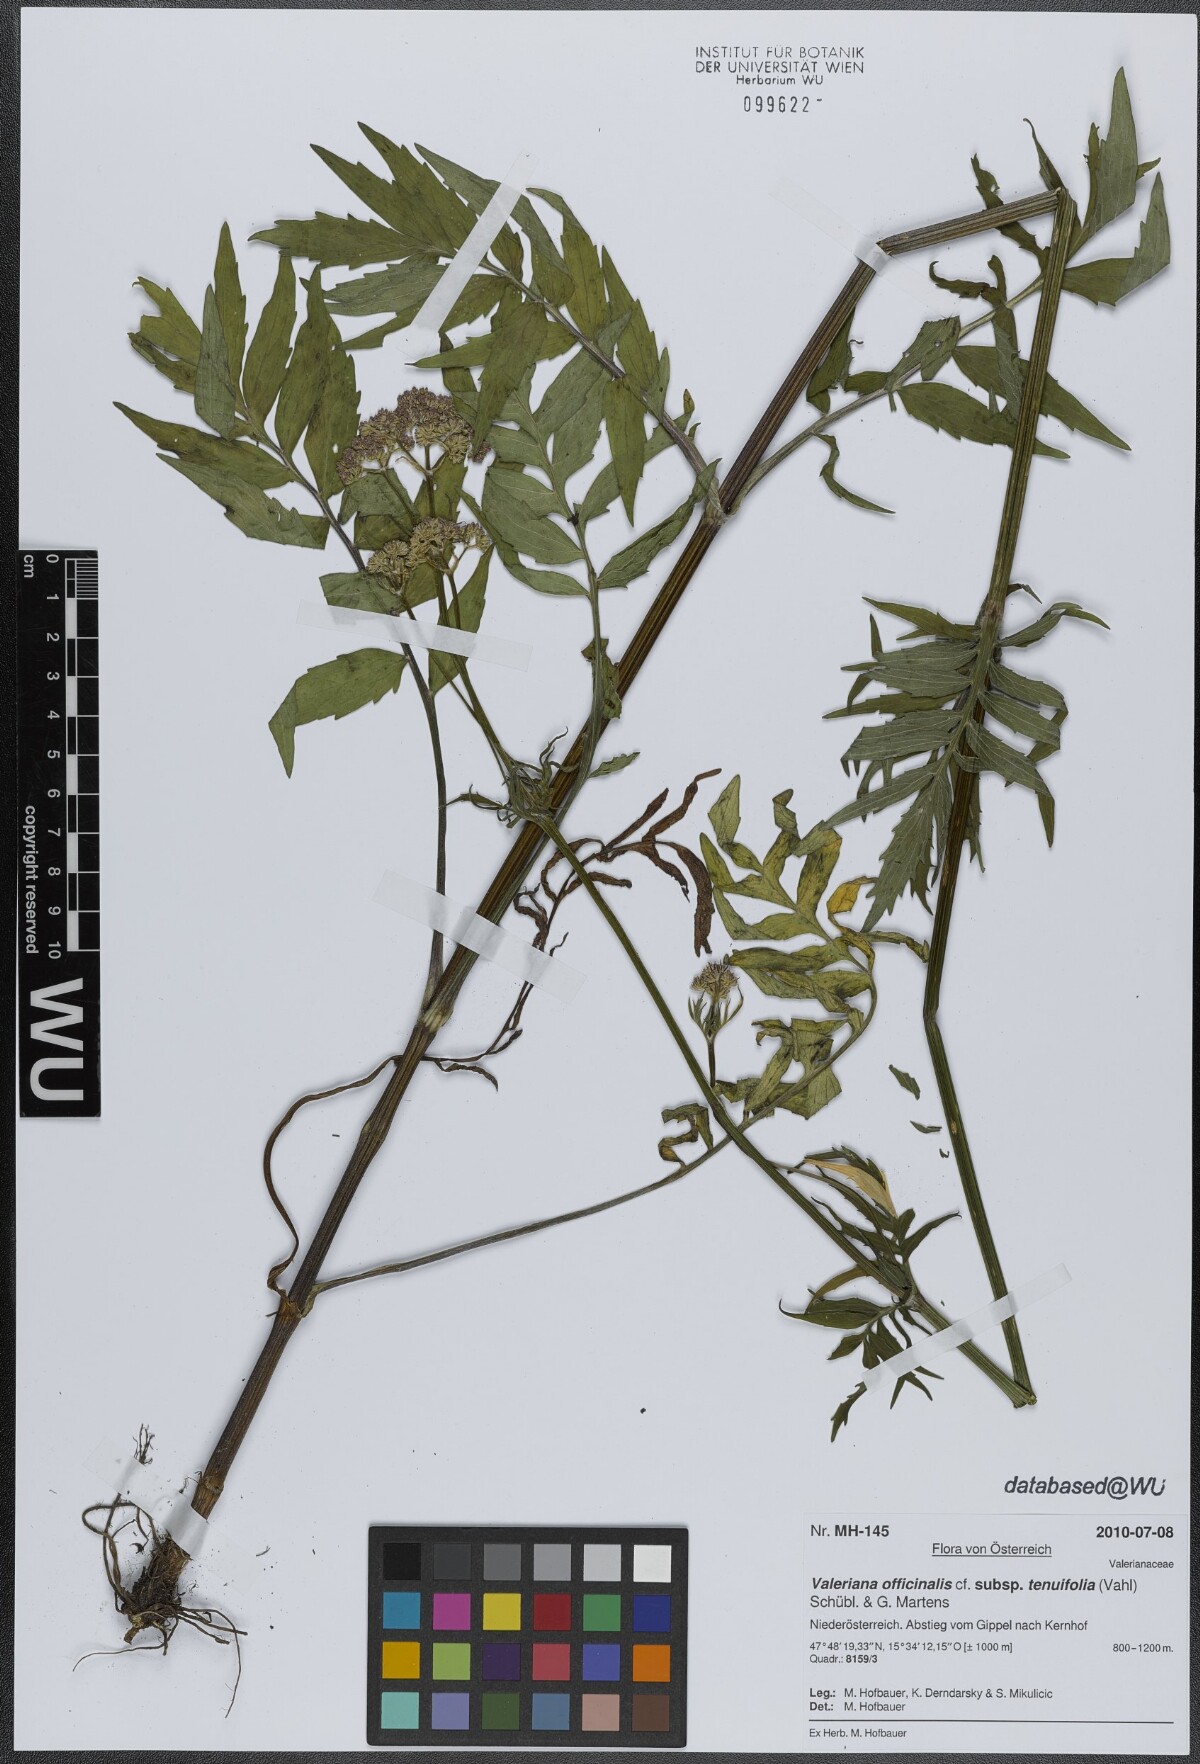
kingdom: Plantae
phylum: Tracheophyta
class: Magnoliopsida
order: Dipsacales
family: Caprifoliaceae
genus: Valeriana
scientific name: Valeriana officinalis
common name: Common valerian
